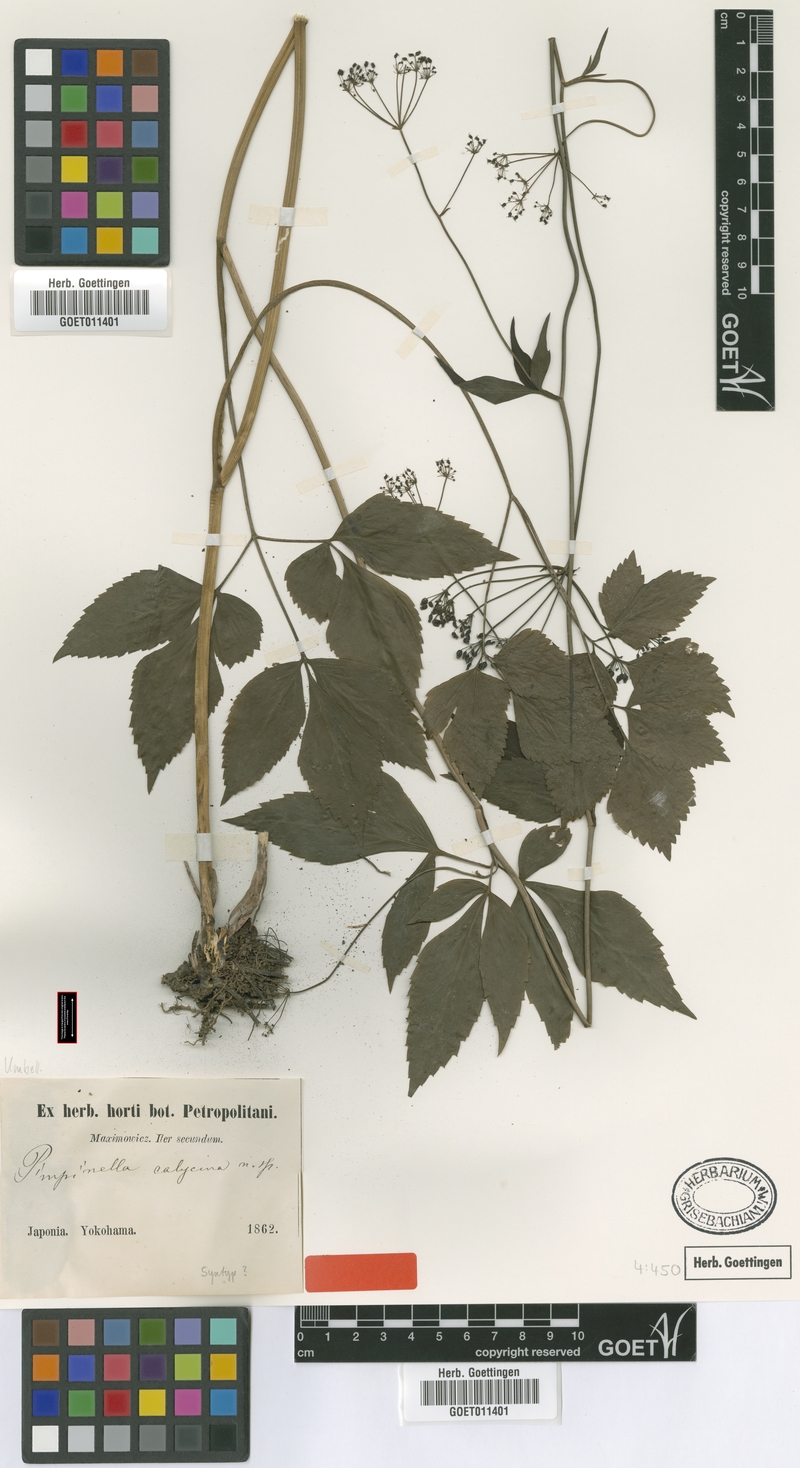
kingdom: Plantae
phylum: Tracheophyta
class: Magnoliopsida
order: Apiales
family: Apiaceae
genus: Spuriopimpinella
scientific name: Spuriopimpinella calycina
